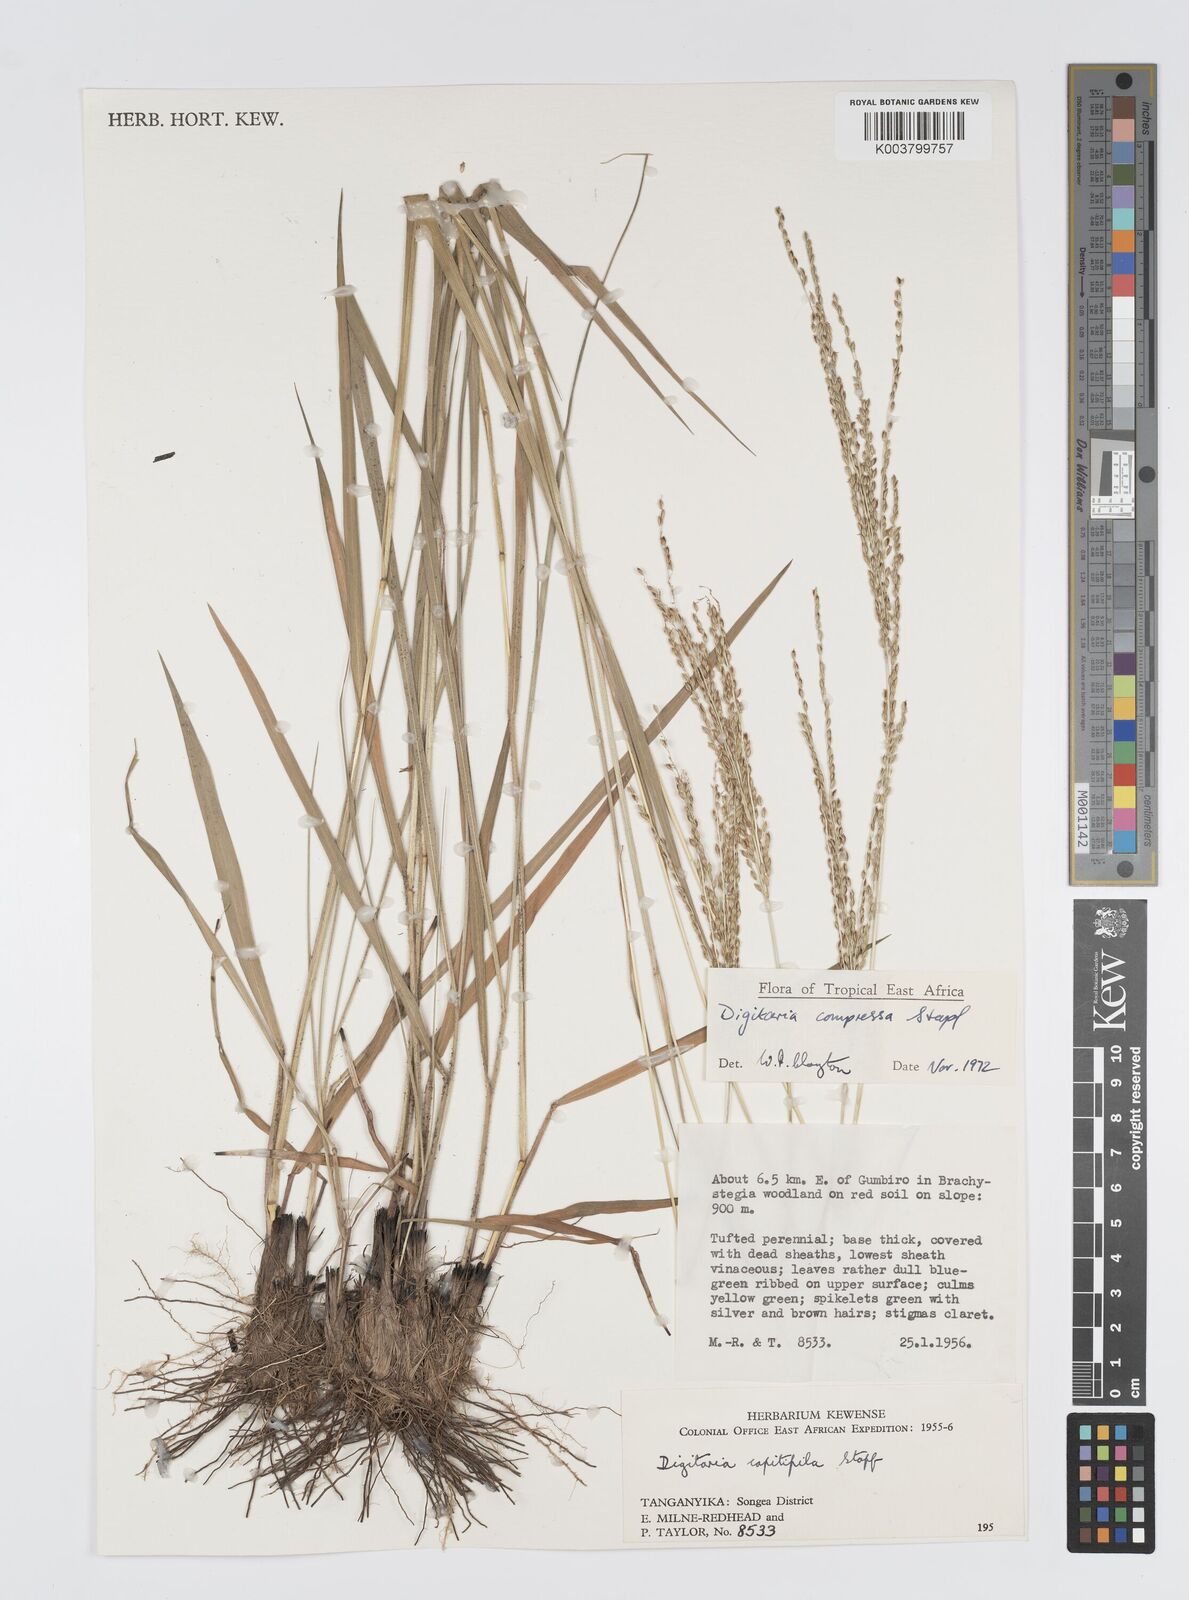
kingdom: Plantae
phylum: Tracheophyta
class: Liliopsida
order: Poales
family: Poaceae
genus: Digitaria
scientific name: Digitaria compressa
